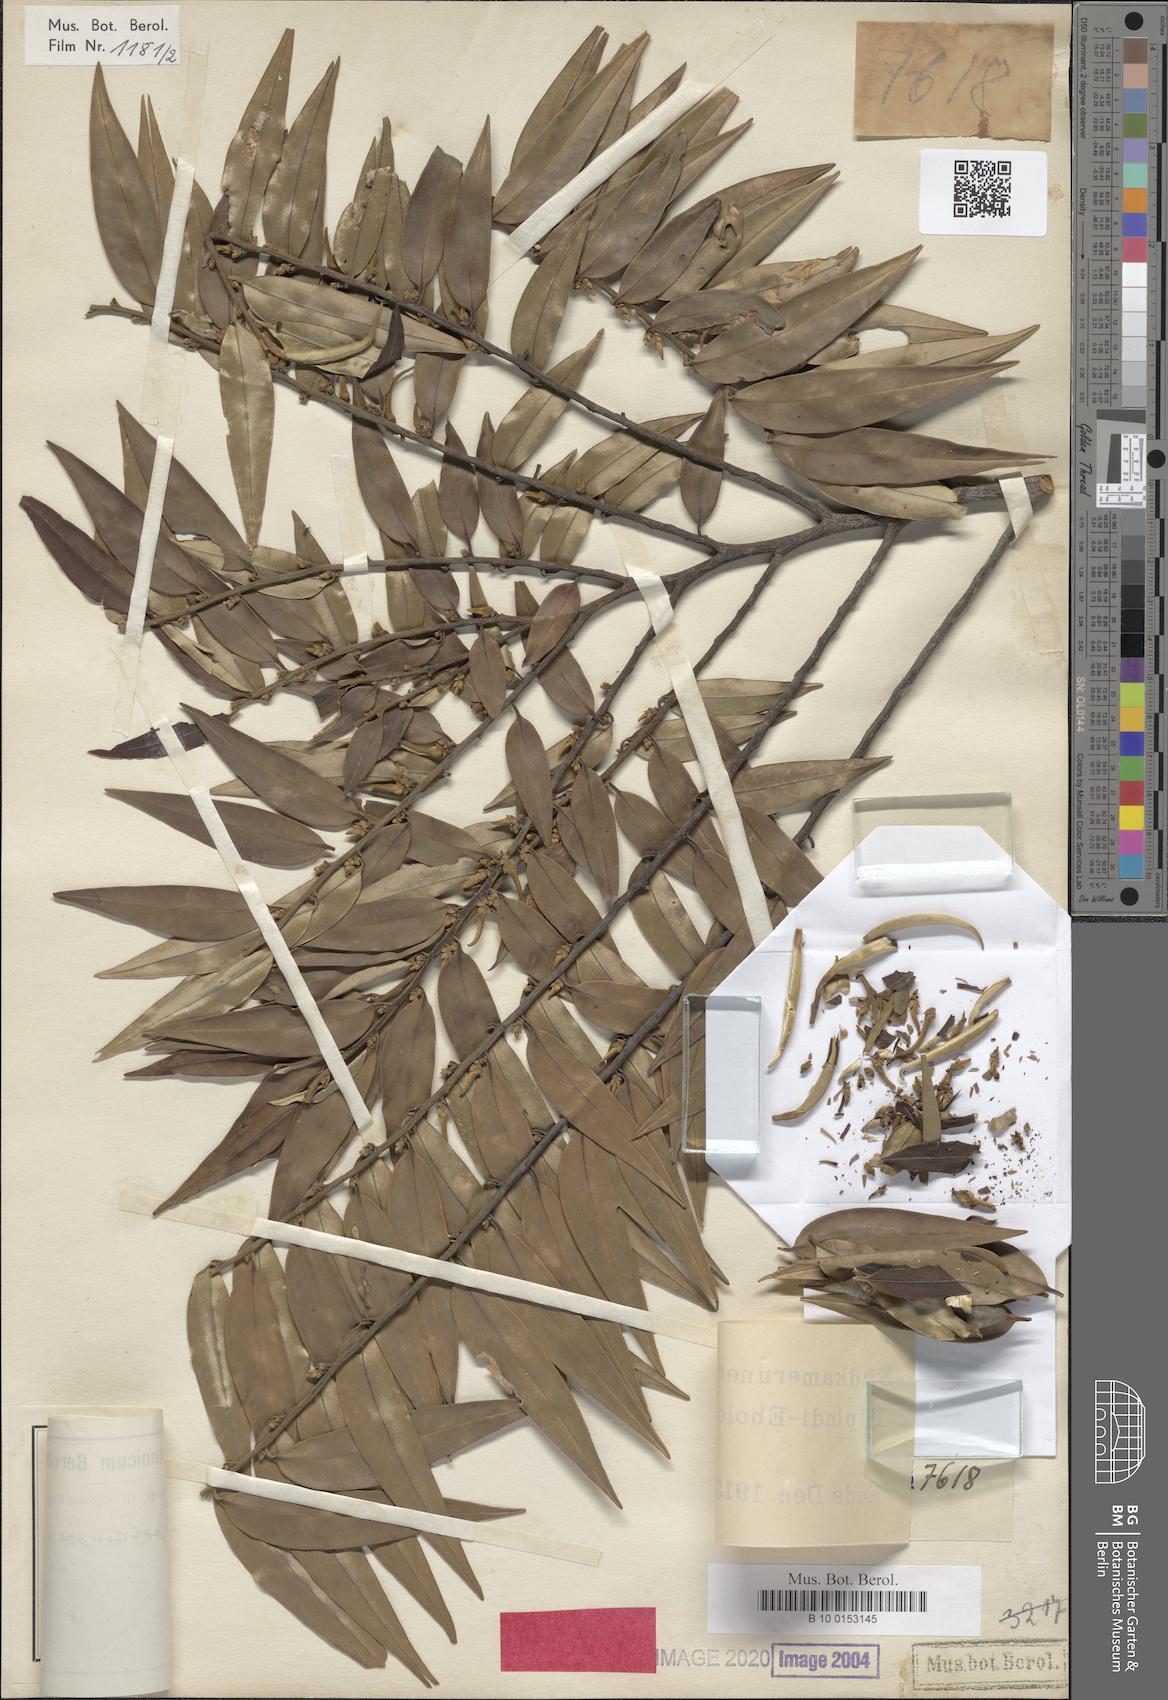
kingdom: Plantae
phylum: Tracheophyta
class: Magnoliopsida
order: Magnoliales
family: Annonaceae
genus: Xylopia
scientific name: Xylopia hypolampra
